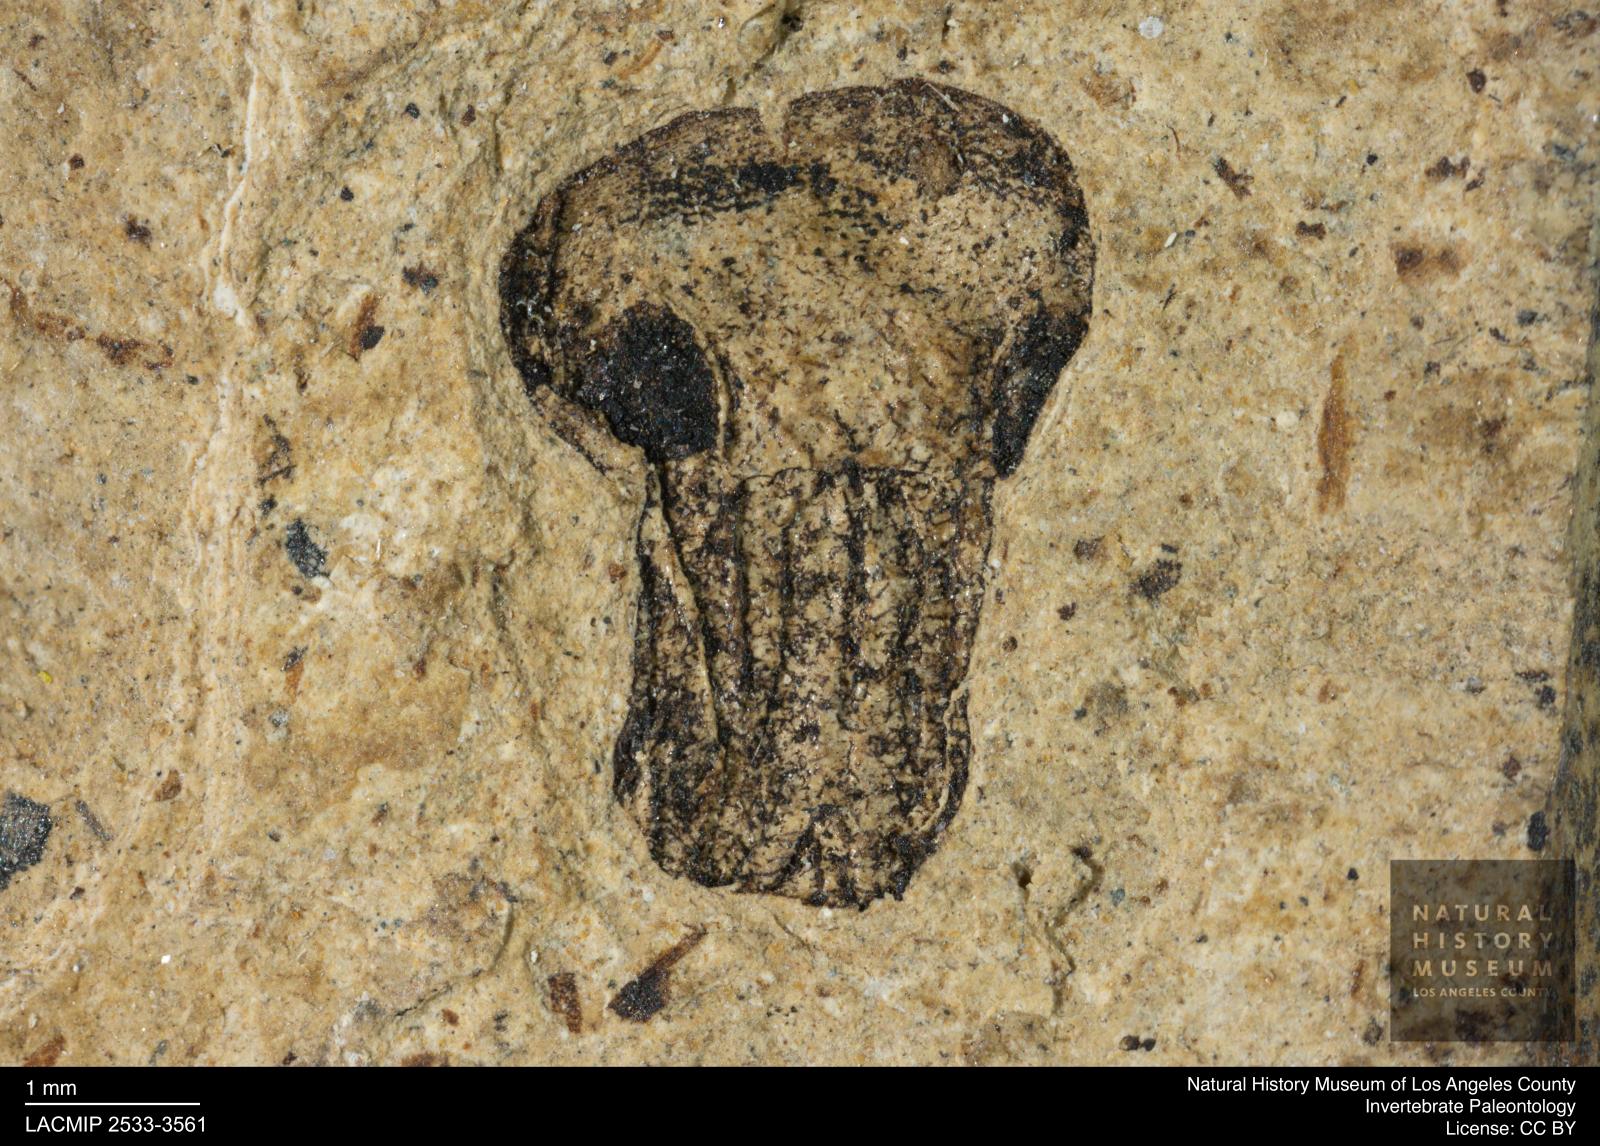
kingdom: Animalia
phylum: Arthropoda
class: Insecta
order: Coleoptera
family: Curculionidae
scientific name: Curculionidae
